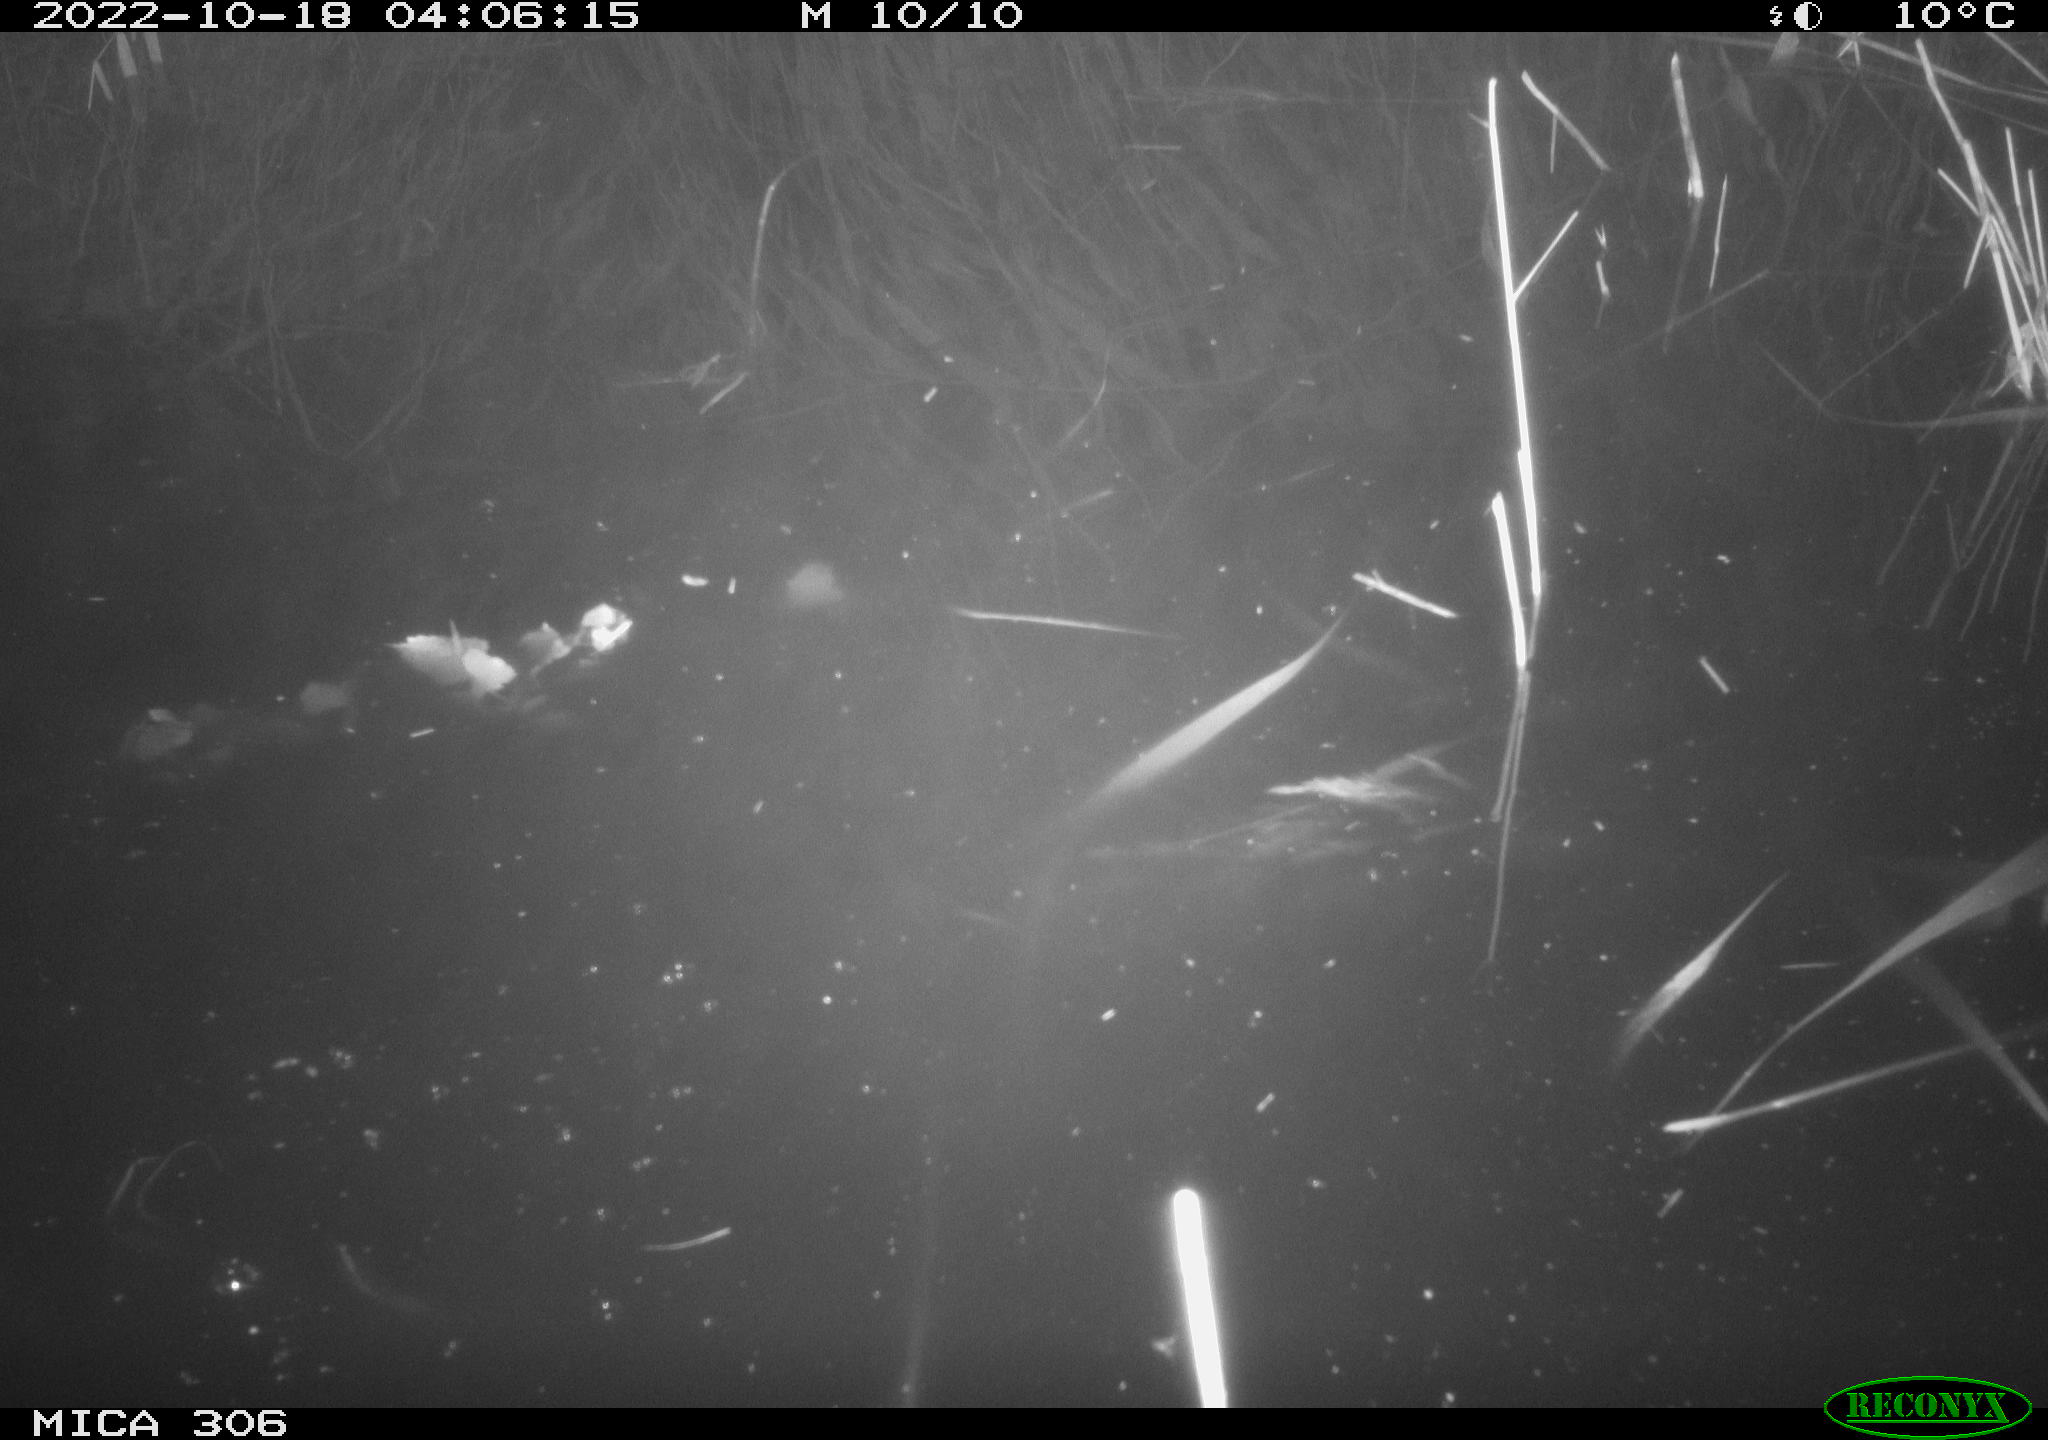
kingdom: Animalia
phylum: Chordata
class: Mammalia
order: Rodentia
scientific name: Rodentia
